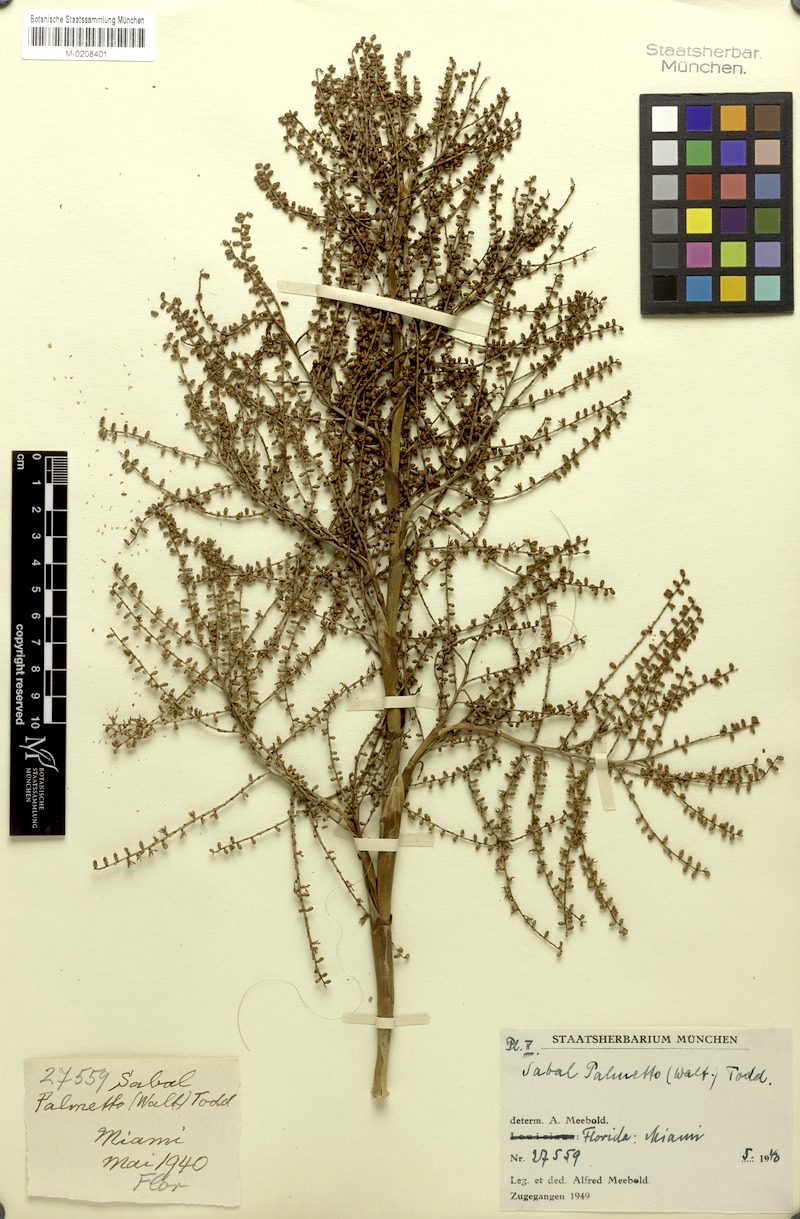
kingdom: Plantae
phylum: Tracheophyta
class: Liliopsida
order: Arecales
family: Arecaceae
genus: Sabal
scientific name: Sabal palmetto
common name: Blue palmetto
